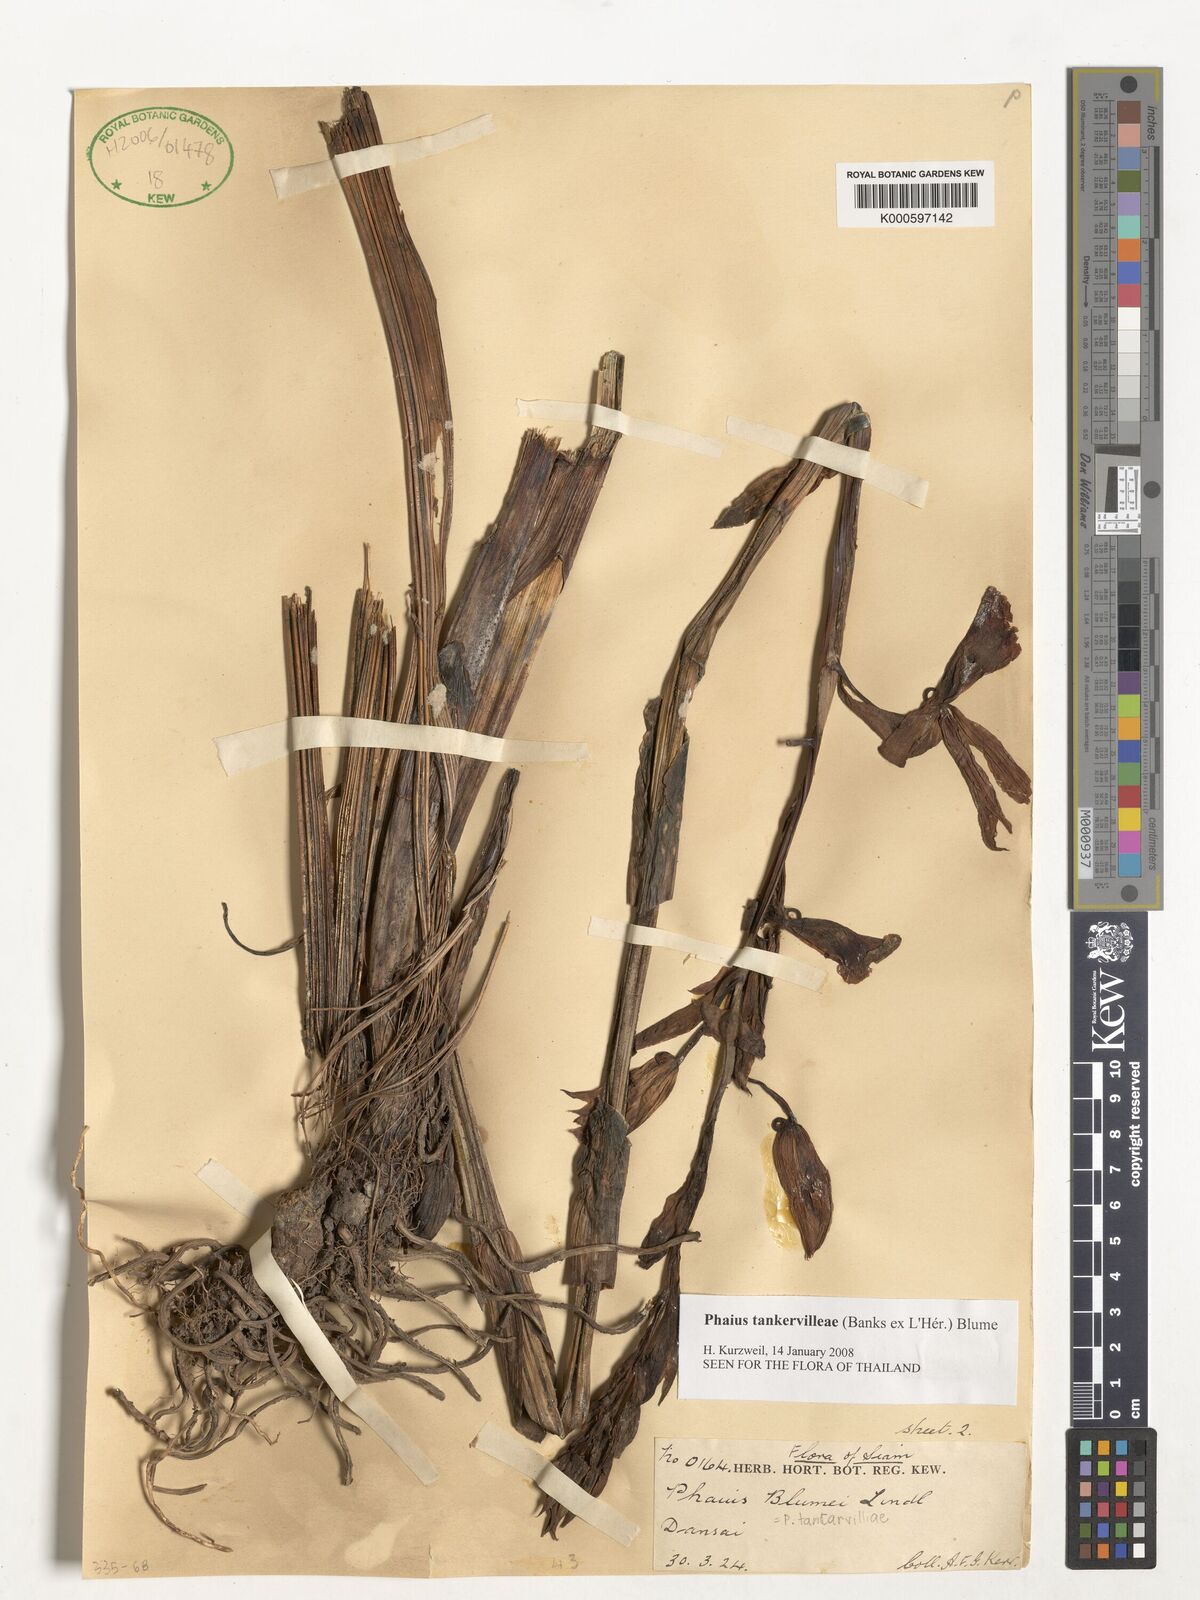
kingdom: Plantae
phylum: Tracheophyta
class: Liliopsida
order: Asparagales
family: Orchidaceae
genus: Calanthe
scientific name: Calanthe
